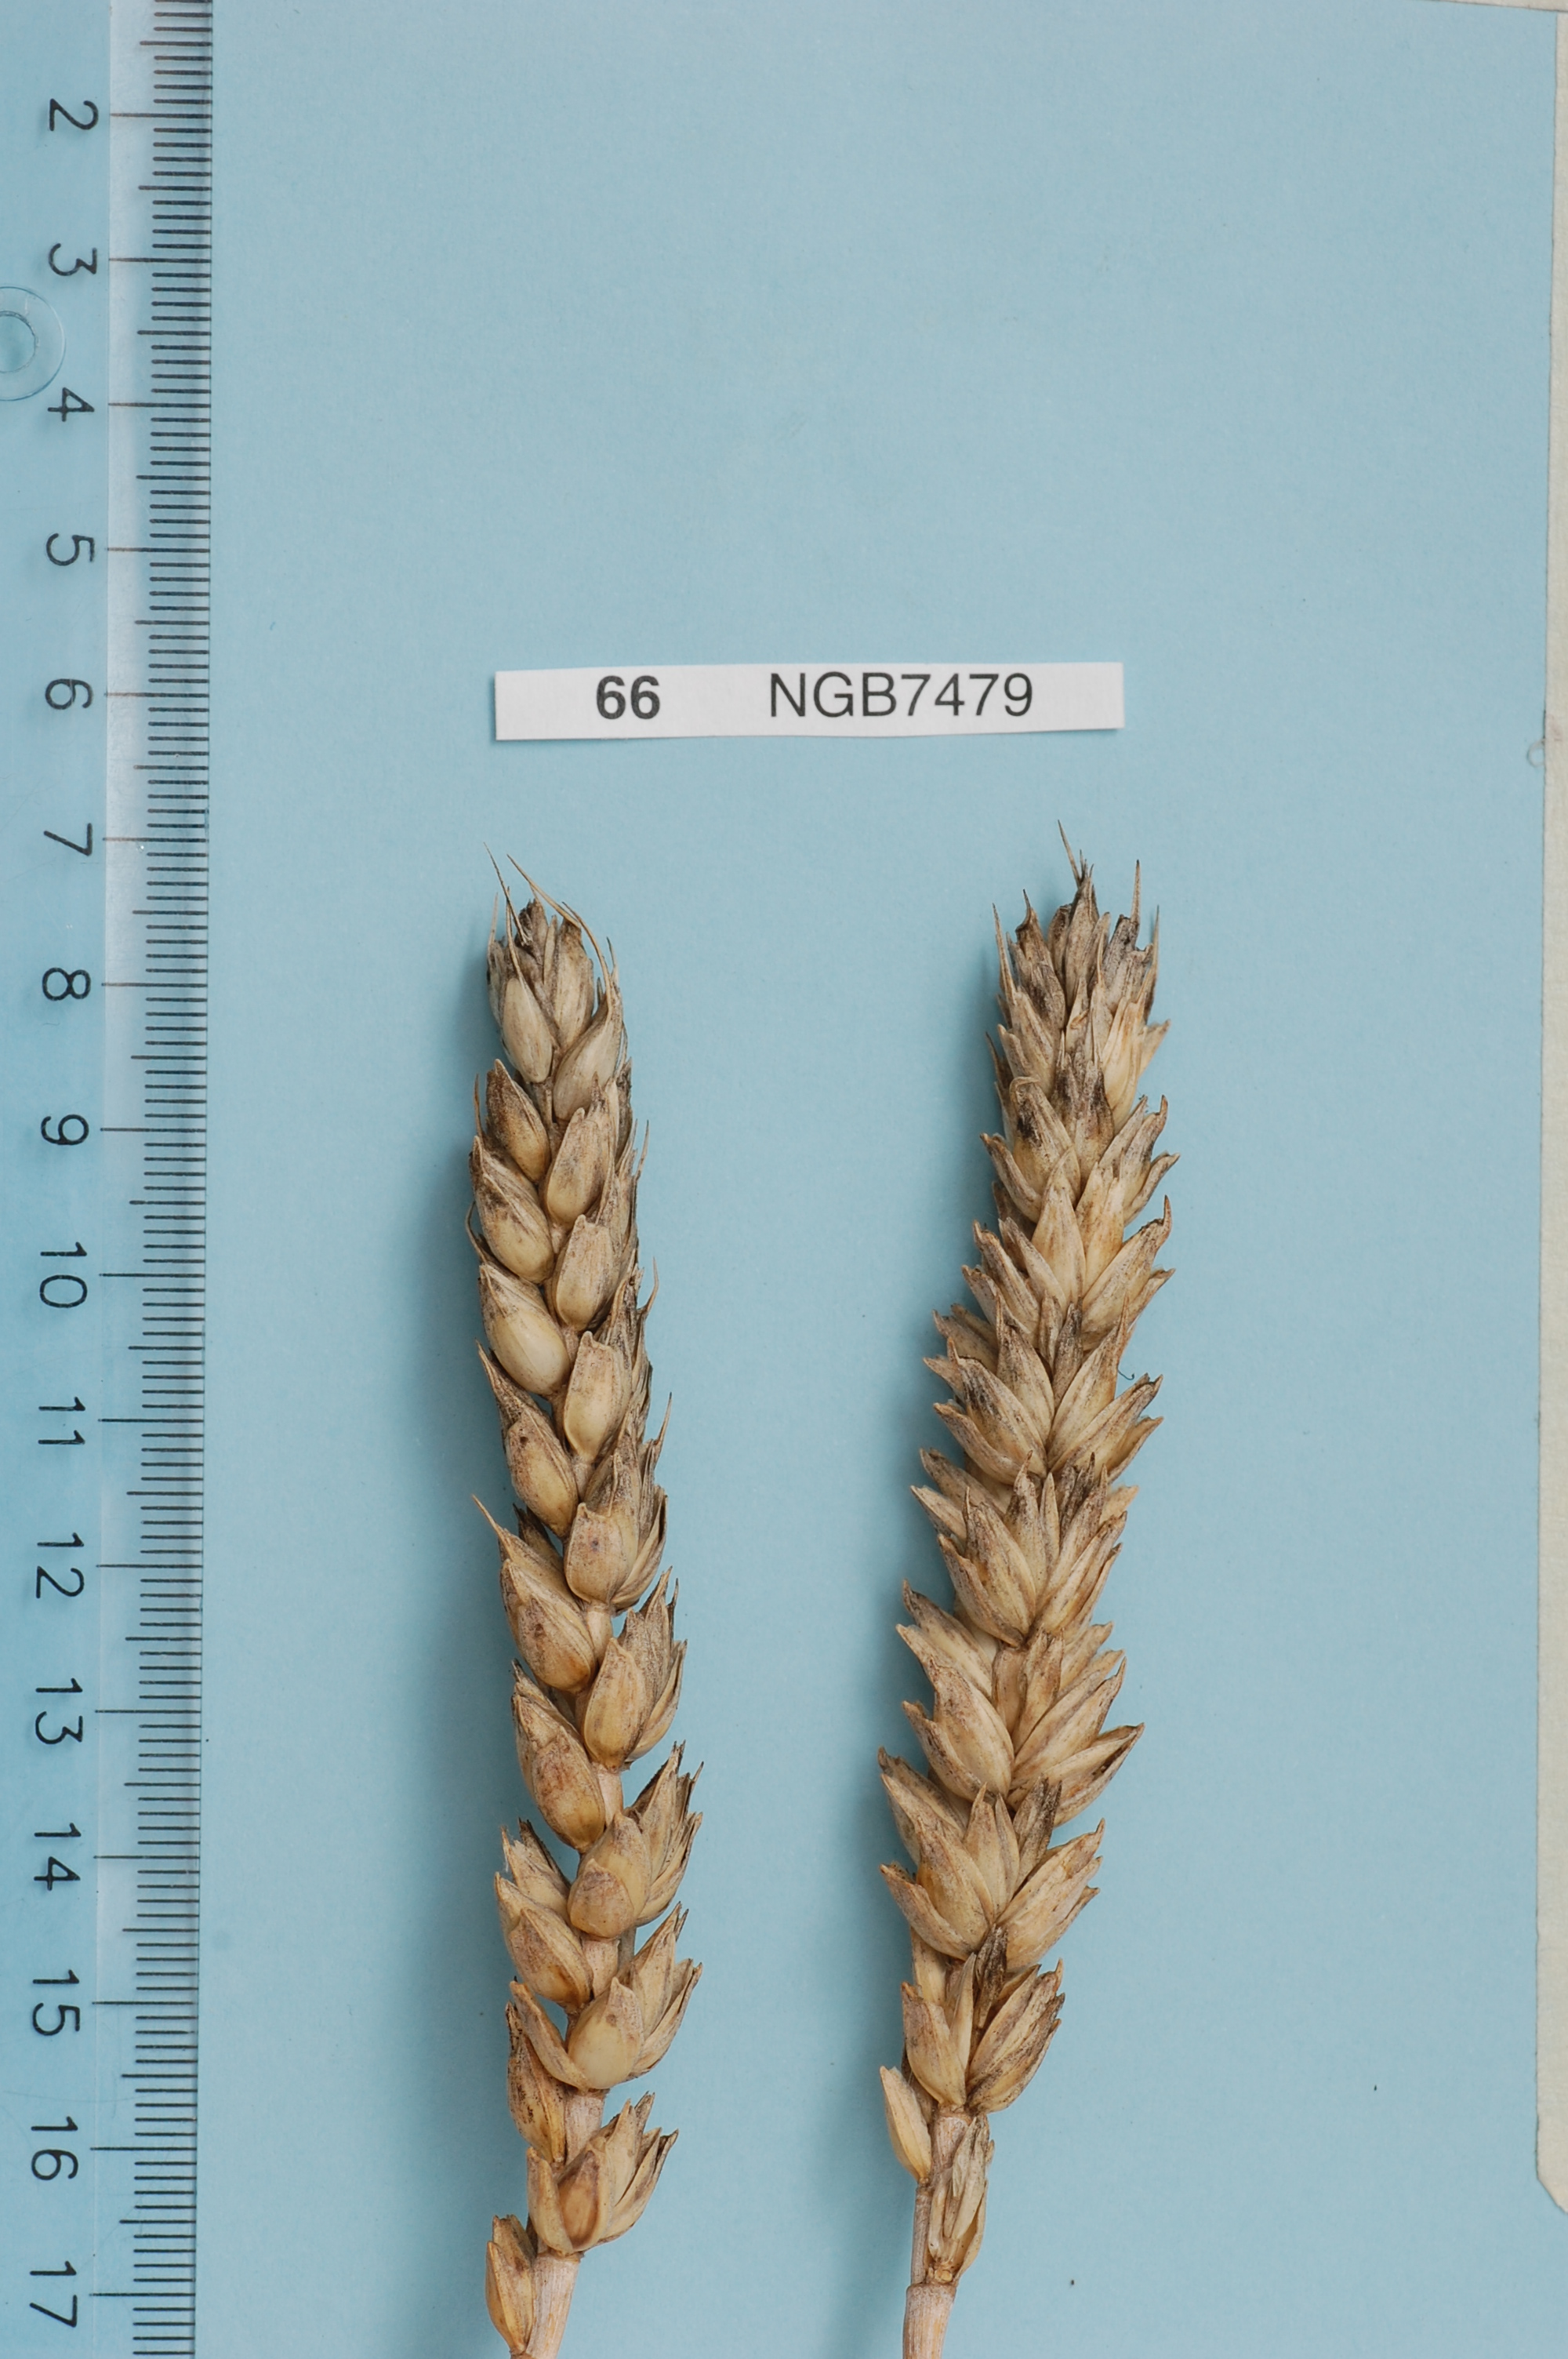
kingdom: Plantae
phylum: Tracheophyta
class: Liliopsida
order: Poales
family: Poaceae
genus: Triticum
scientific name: Triticum aestivum
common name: Common wheat
